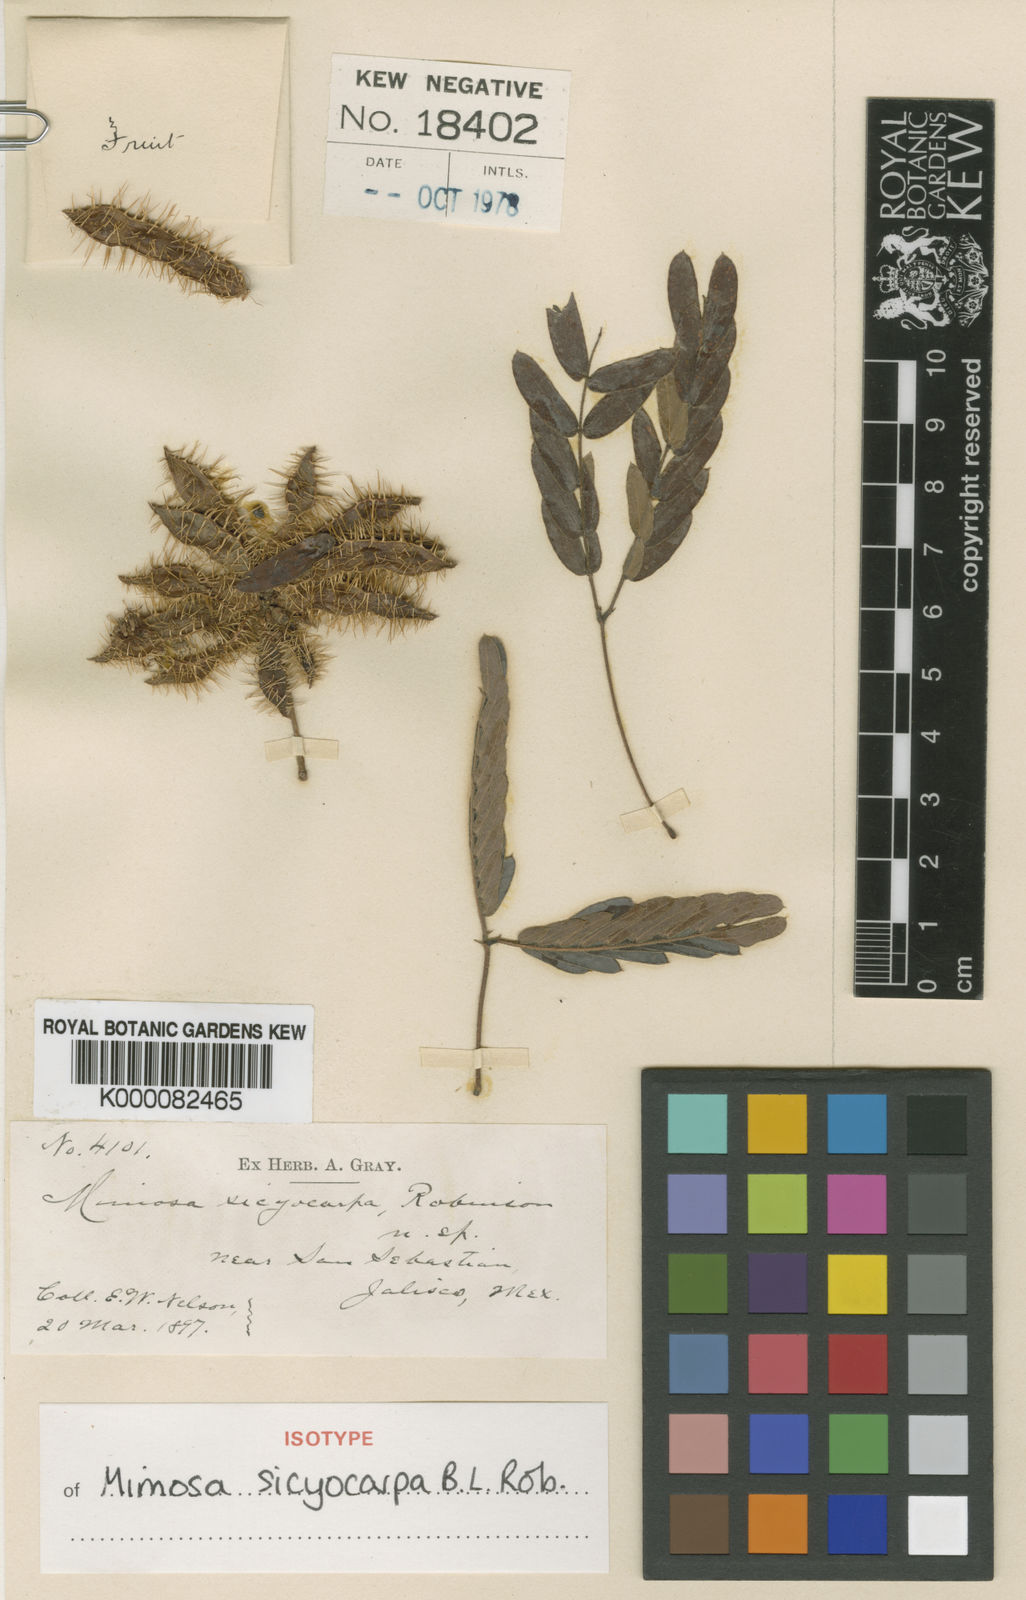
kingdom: Plantae
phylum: Tracheophyta
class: Magnoliopsida
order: Fabales
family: Fabaceae
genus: Mimosa
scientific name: Mimosa sicyocarpa
